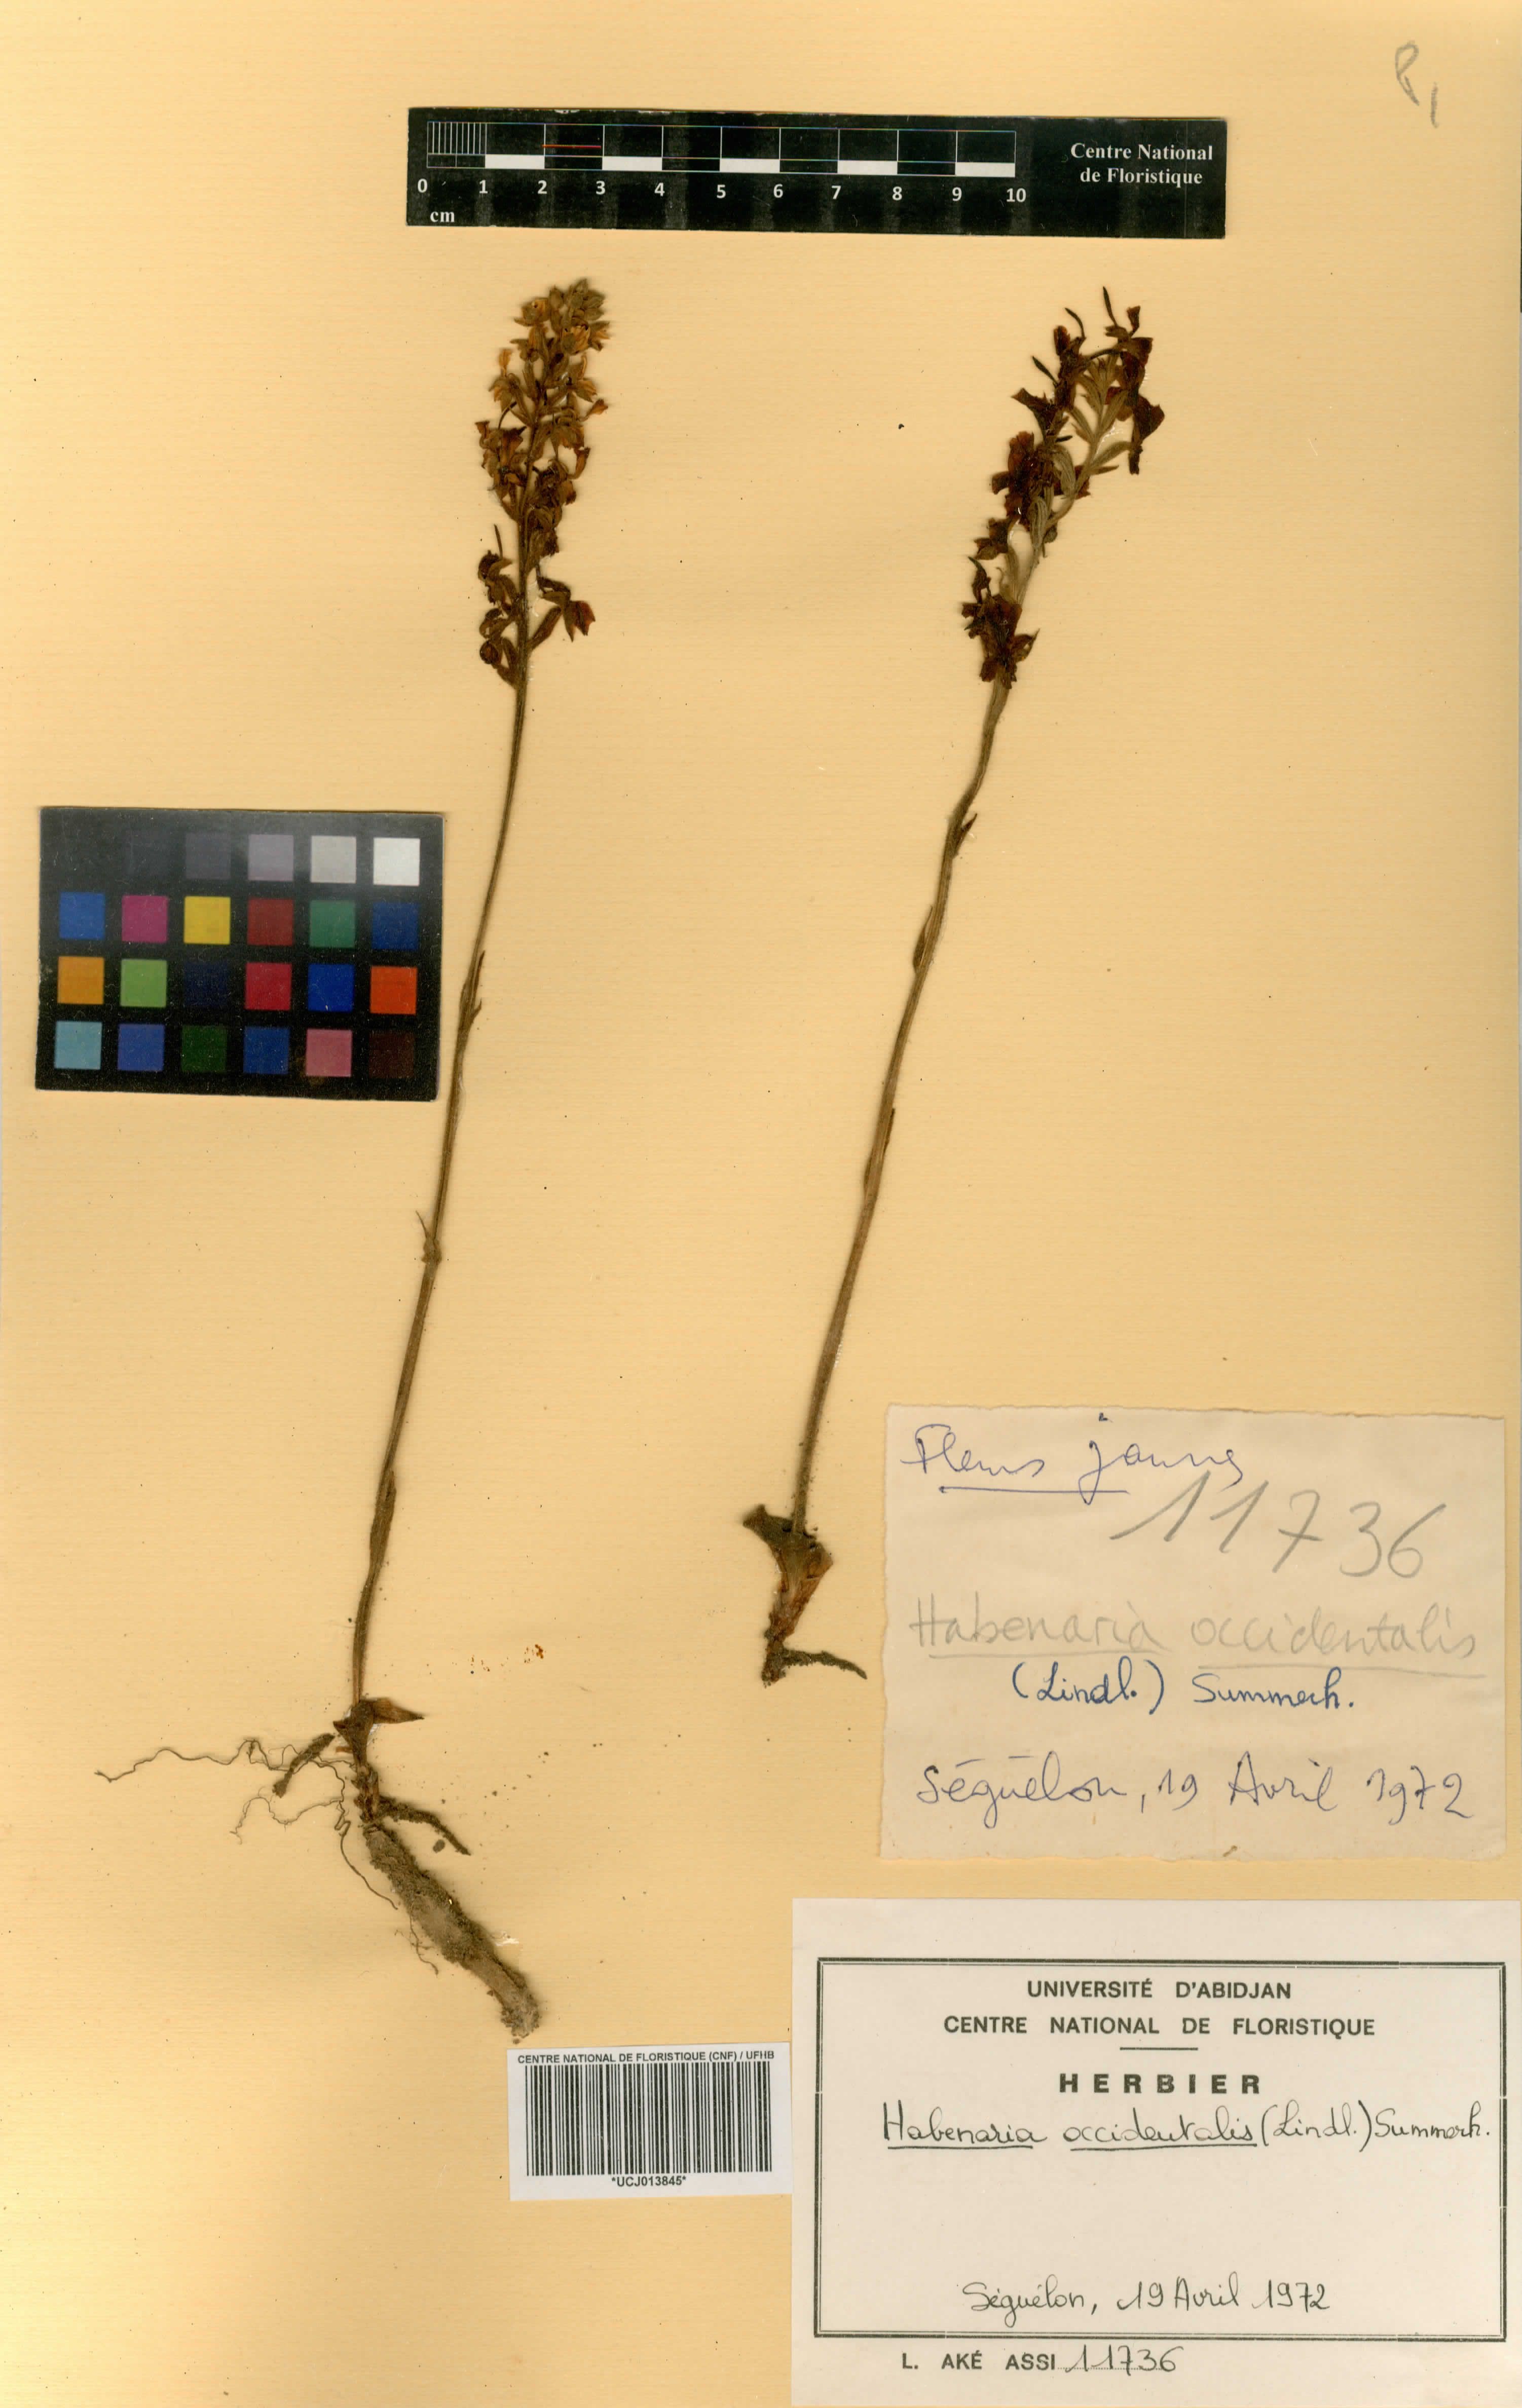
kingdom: Plantae
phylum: Tracheophyta
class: Liliopsida
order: Asparagales
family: Orchidaceae
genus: Habenaria
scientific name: Habenaria occidentalis
